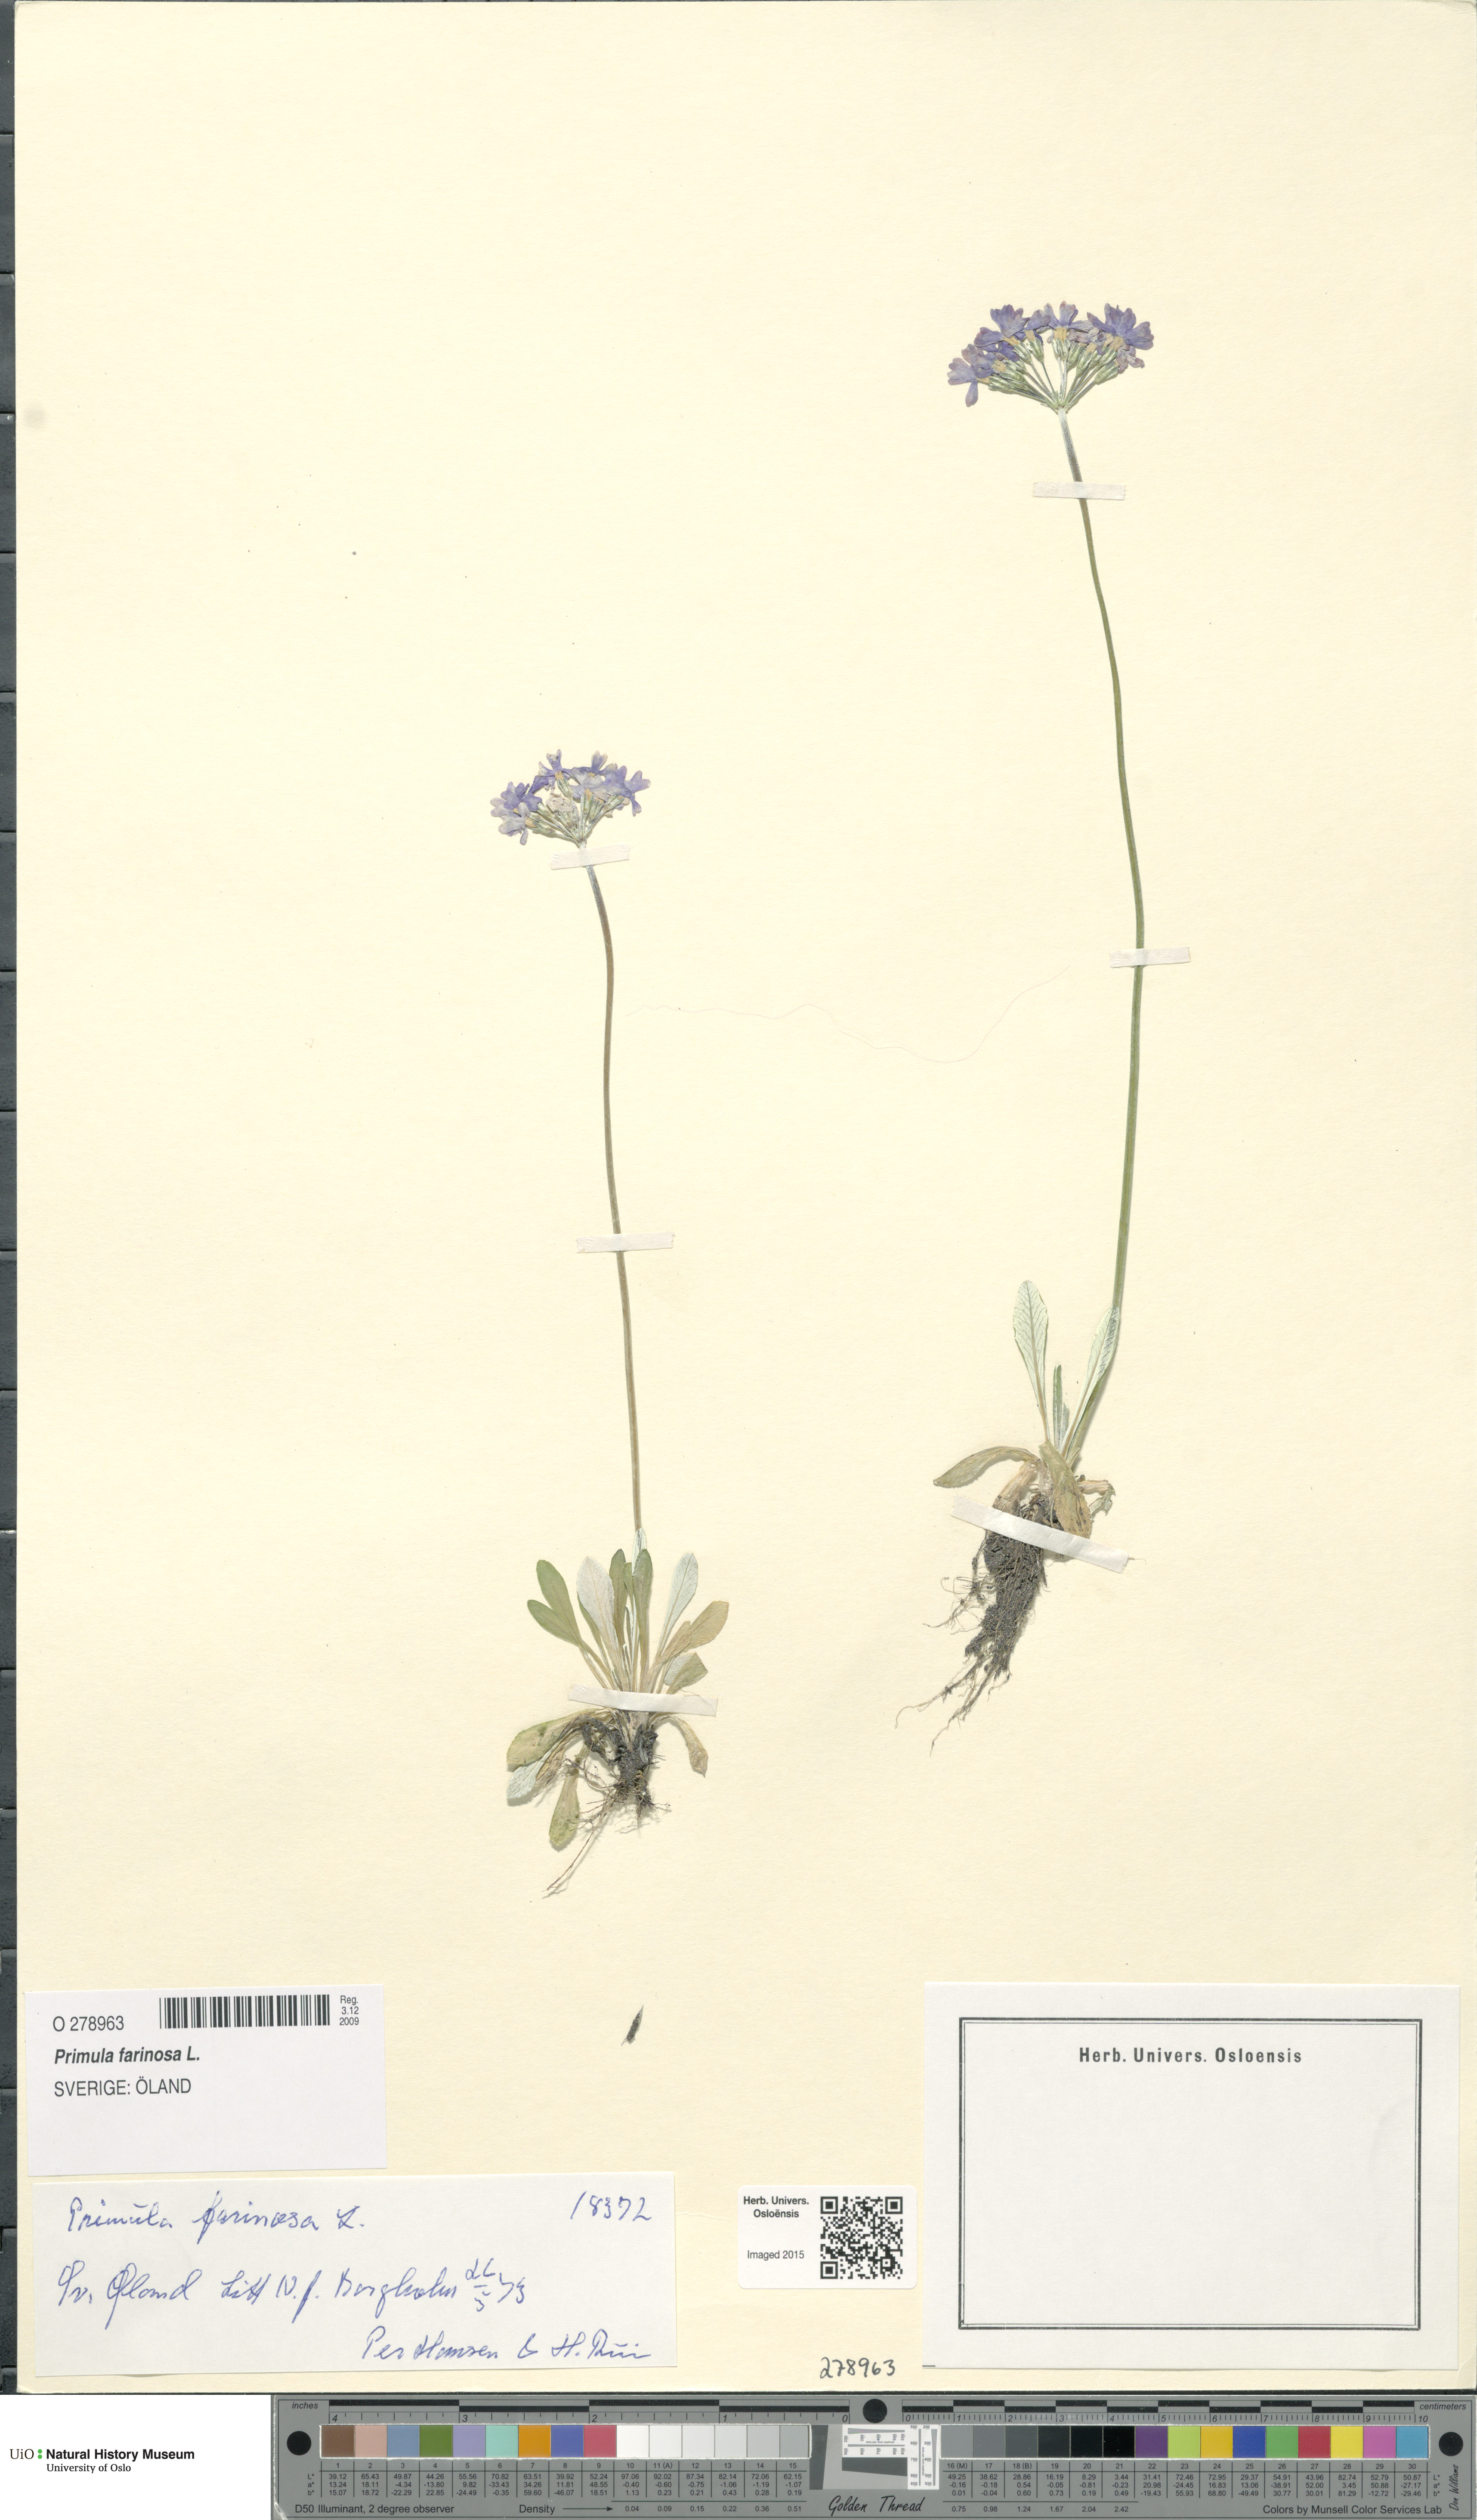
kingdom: Plantae
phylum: Tracheophyta
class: Magnoliopsida
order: Ericales
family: Primulaceae
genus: Primula
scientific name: Primula farinosa
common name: Bird's-eye primrose
